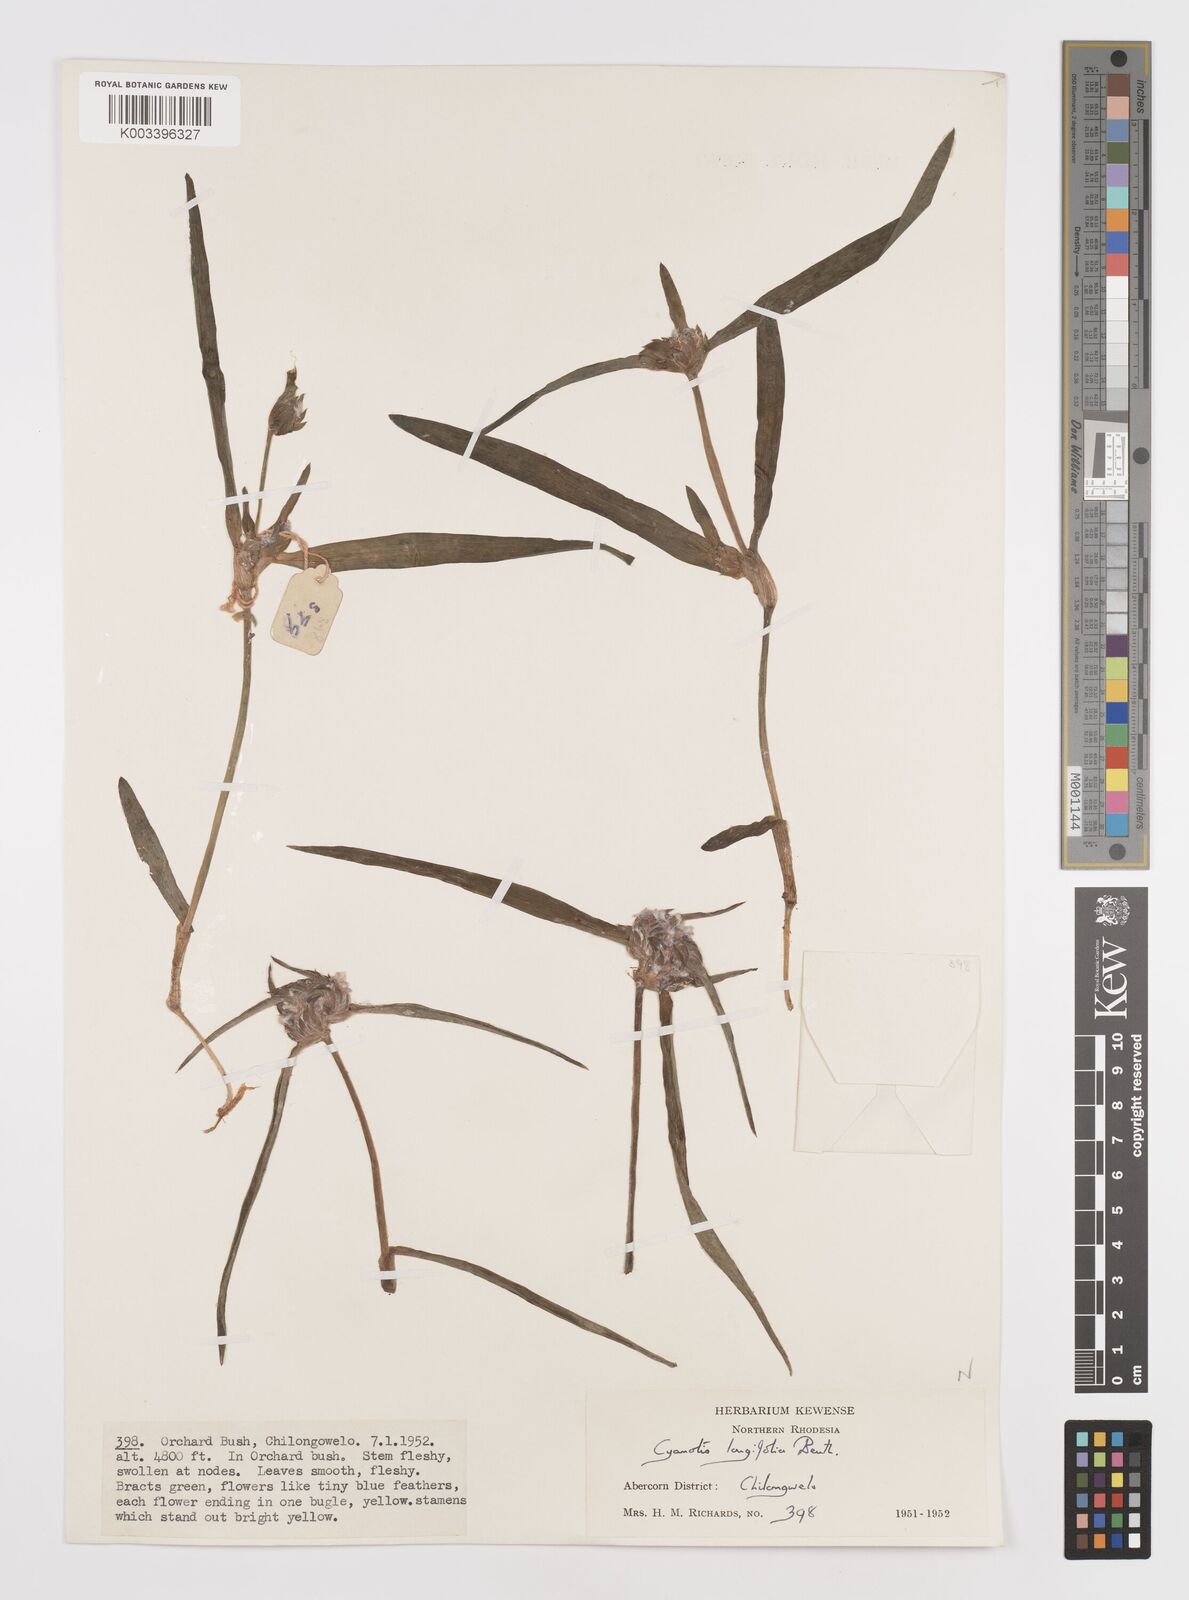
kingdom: Plantae
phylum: Tracheophyta
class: Liliopsida
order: Commelinales
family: Commelinaceae
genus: Cyanotis
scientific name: Cyanotis longifolia
